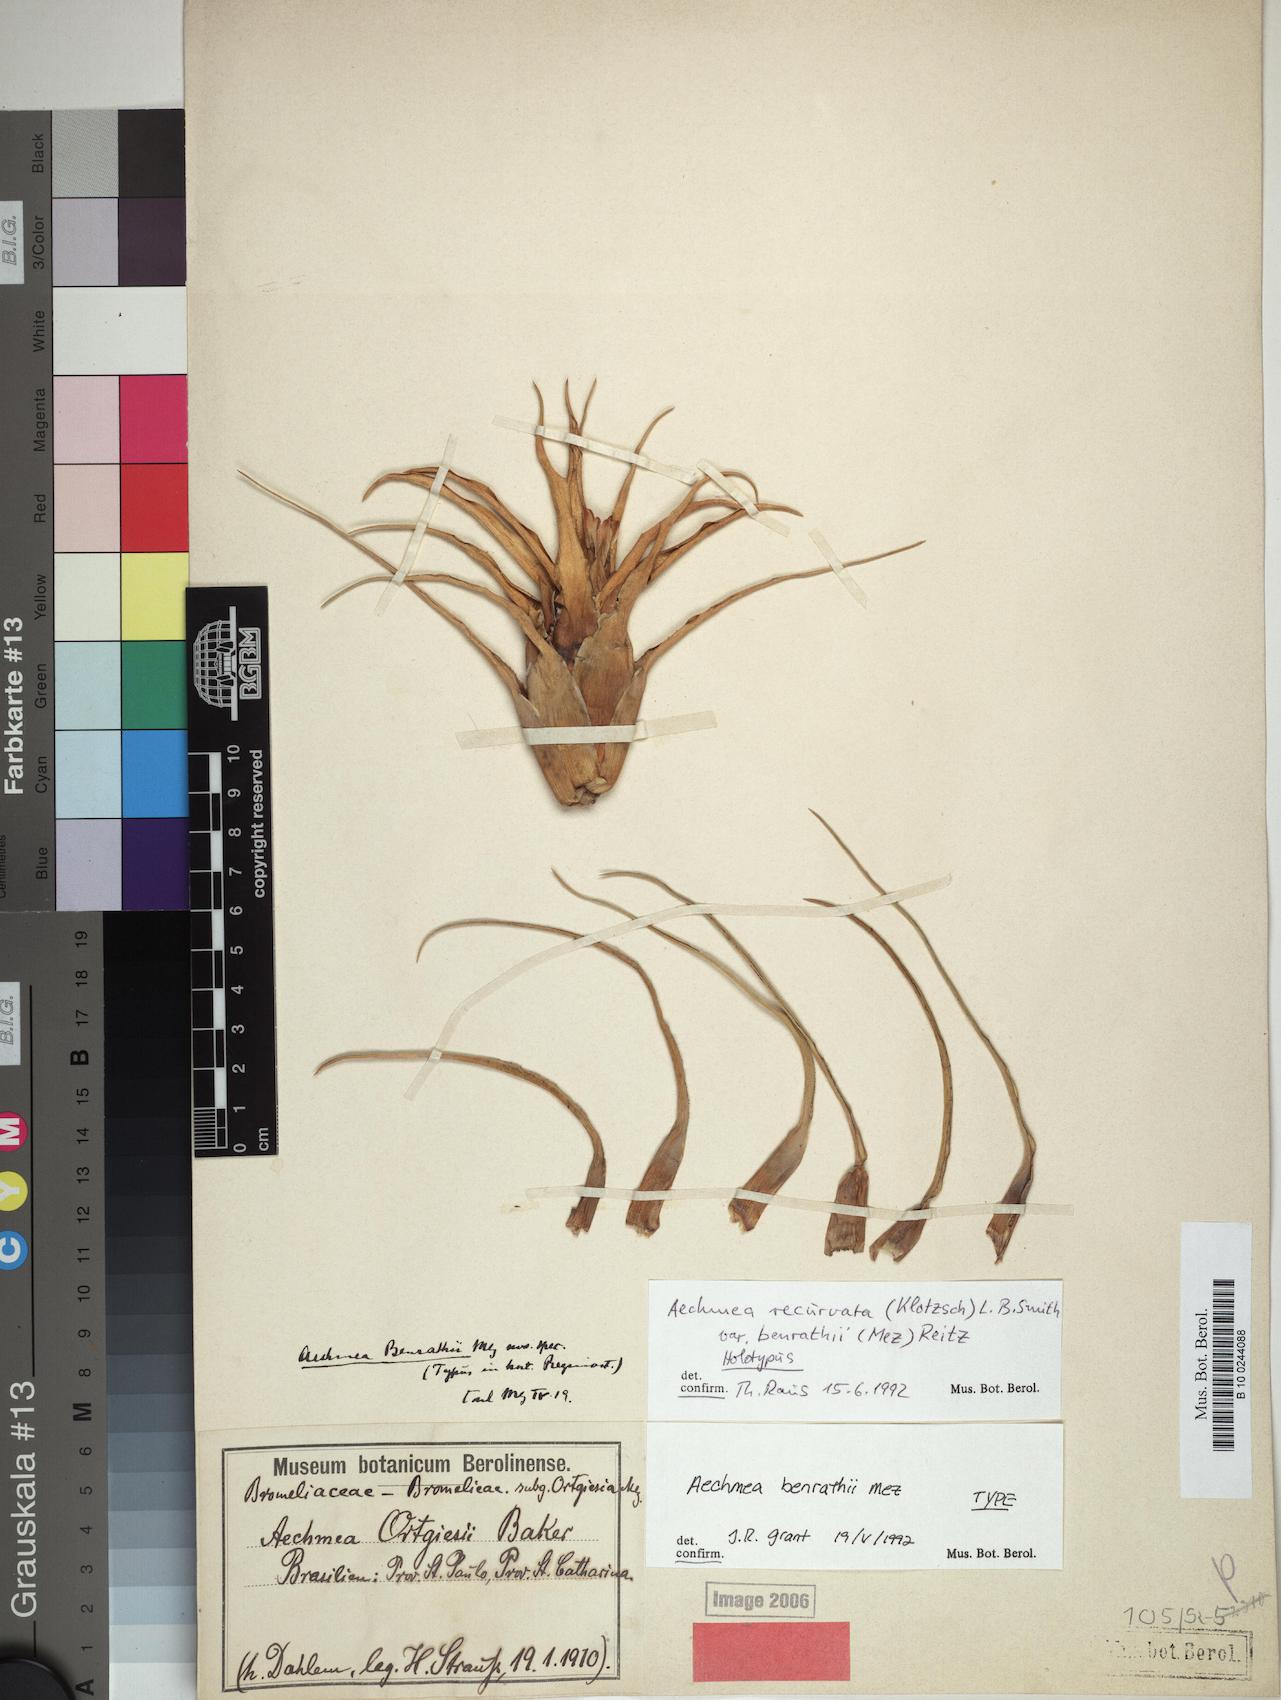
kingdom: Plantae
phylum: Tracheophyta
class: Liliopsida
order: Poales
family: Bromeliaceae
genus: Aechmea
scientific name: Aechmea recurvata
